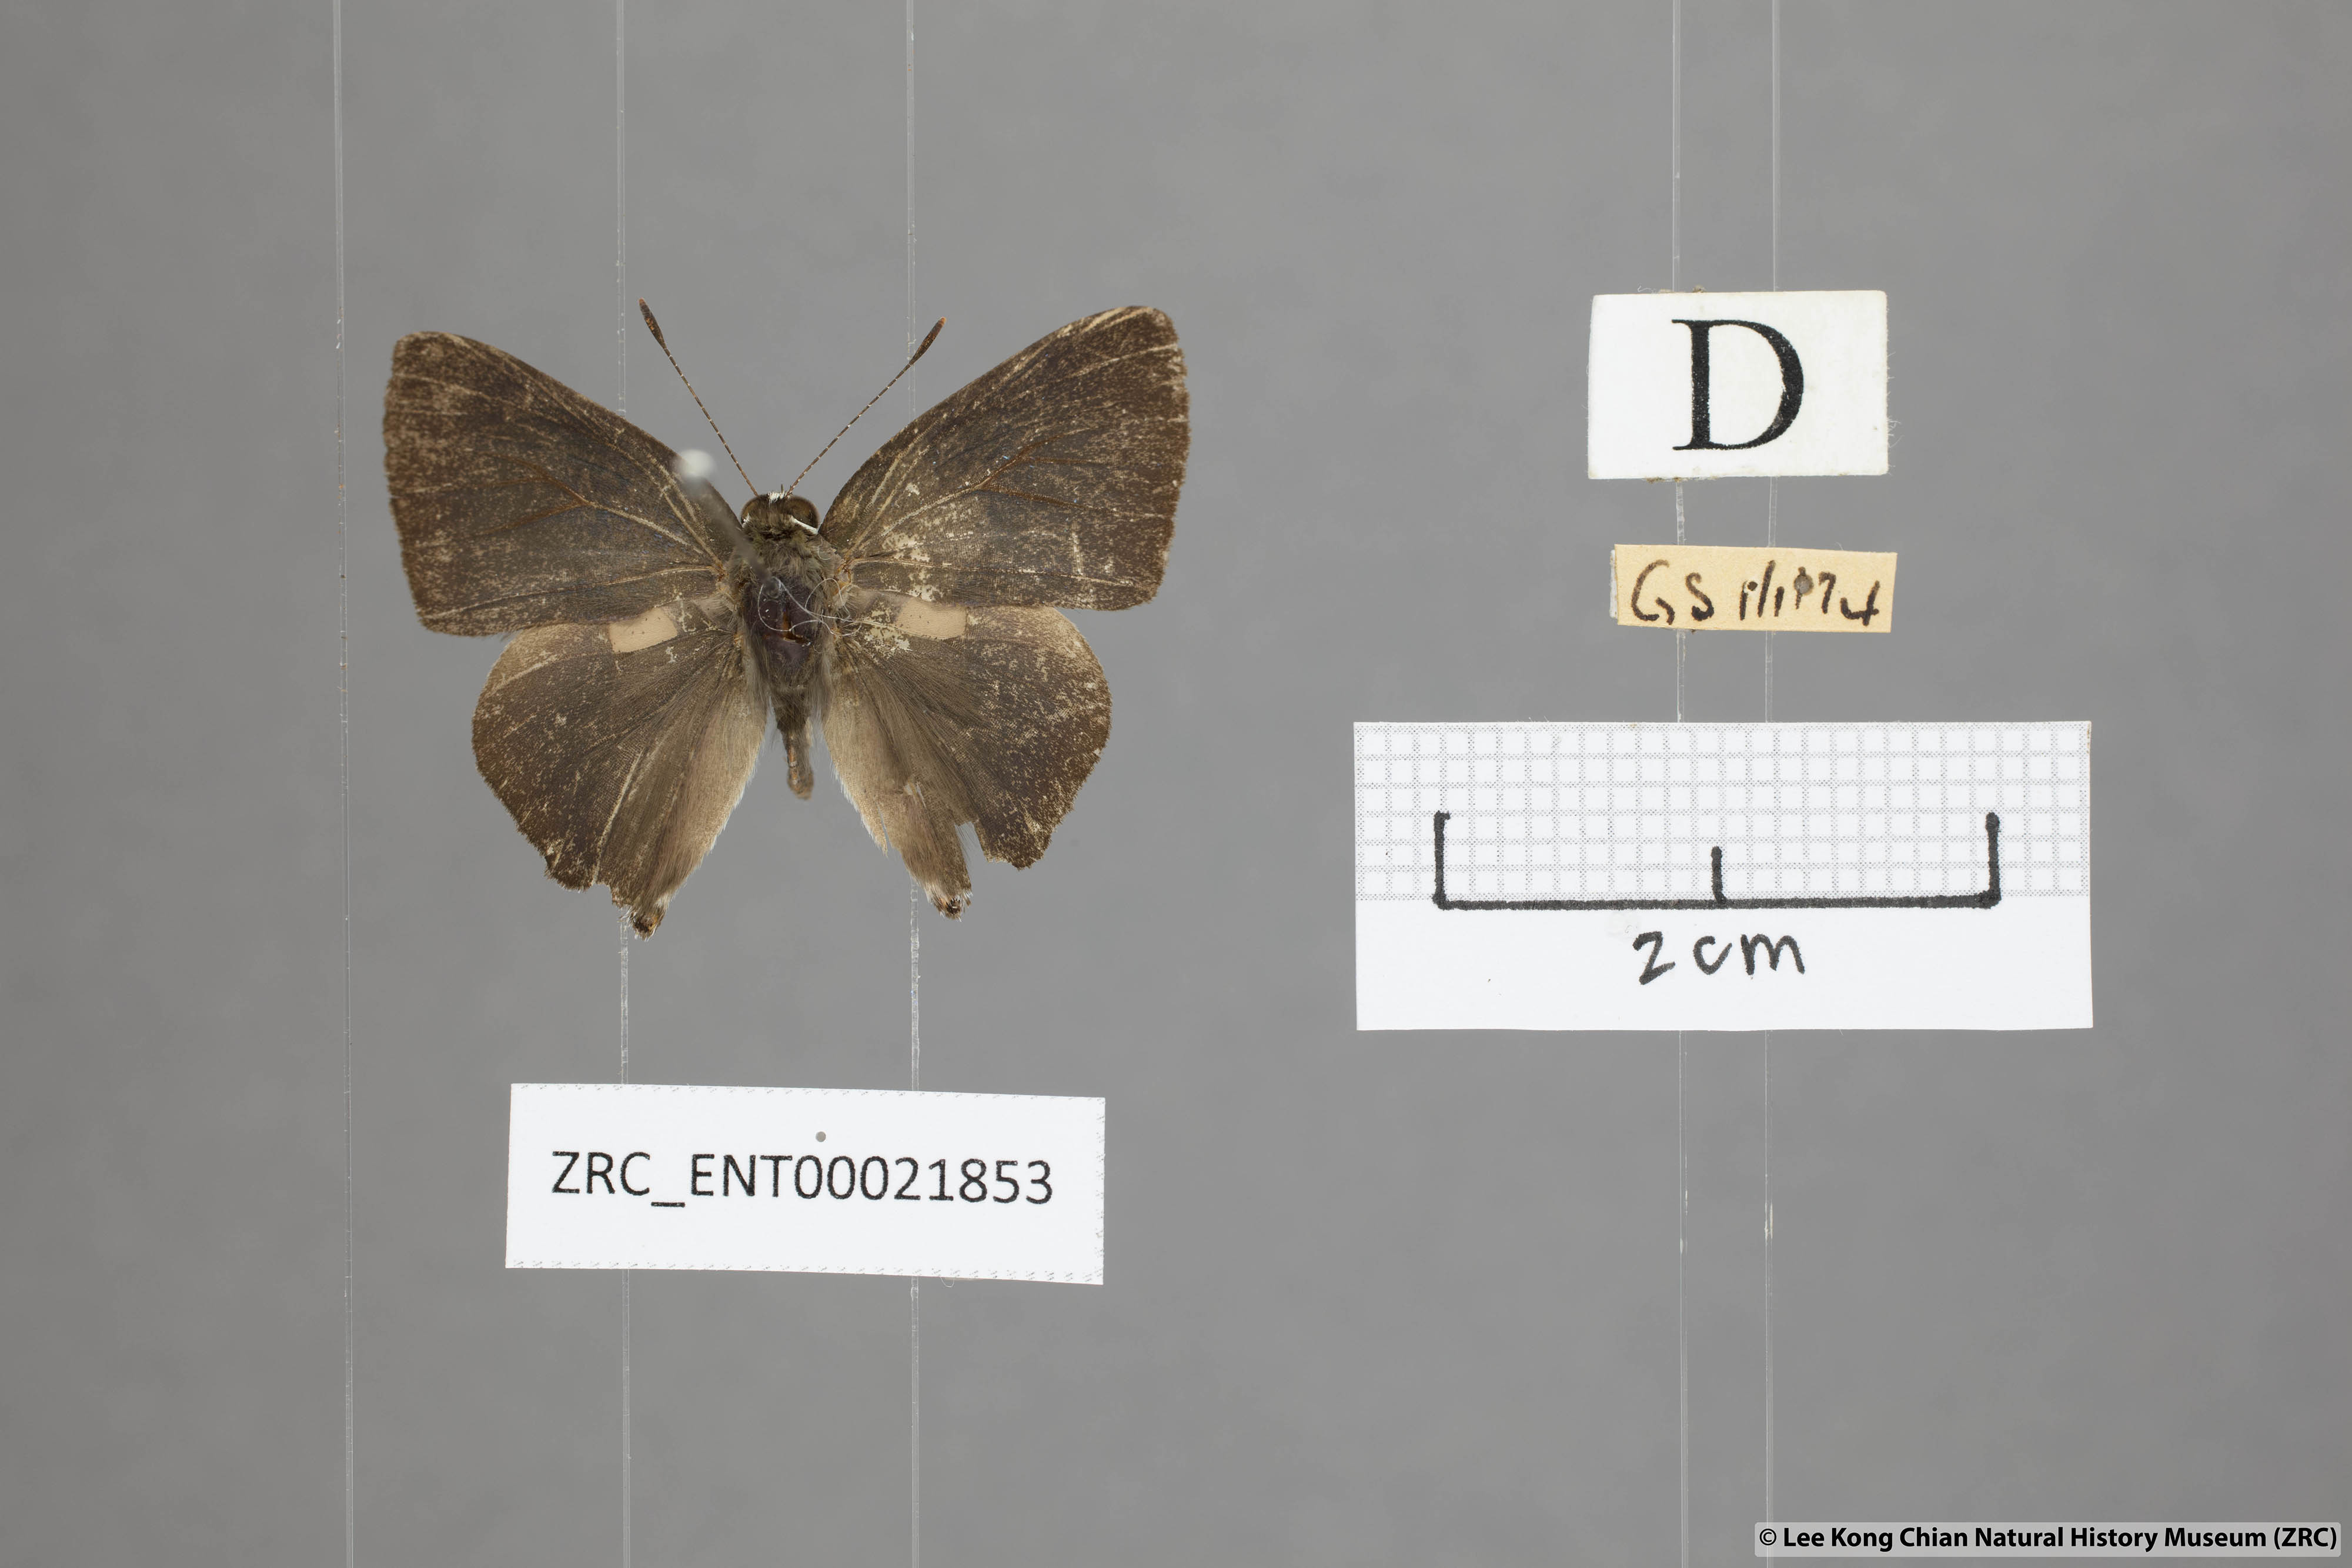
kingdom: Animalia
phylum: Arthropoda
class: Insecta
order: Lepidoptera
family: Lycaenidae
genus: Rapala
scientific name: Rapala manea
